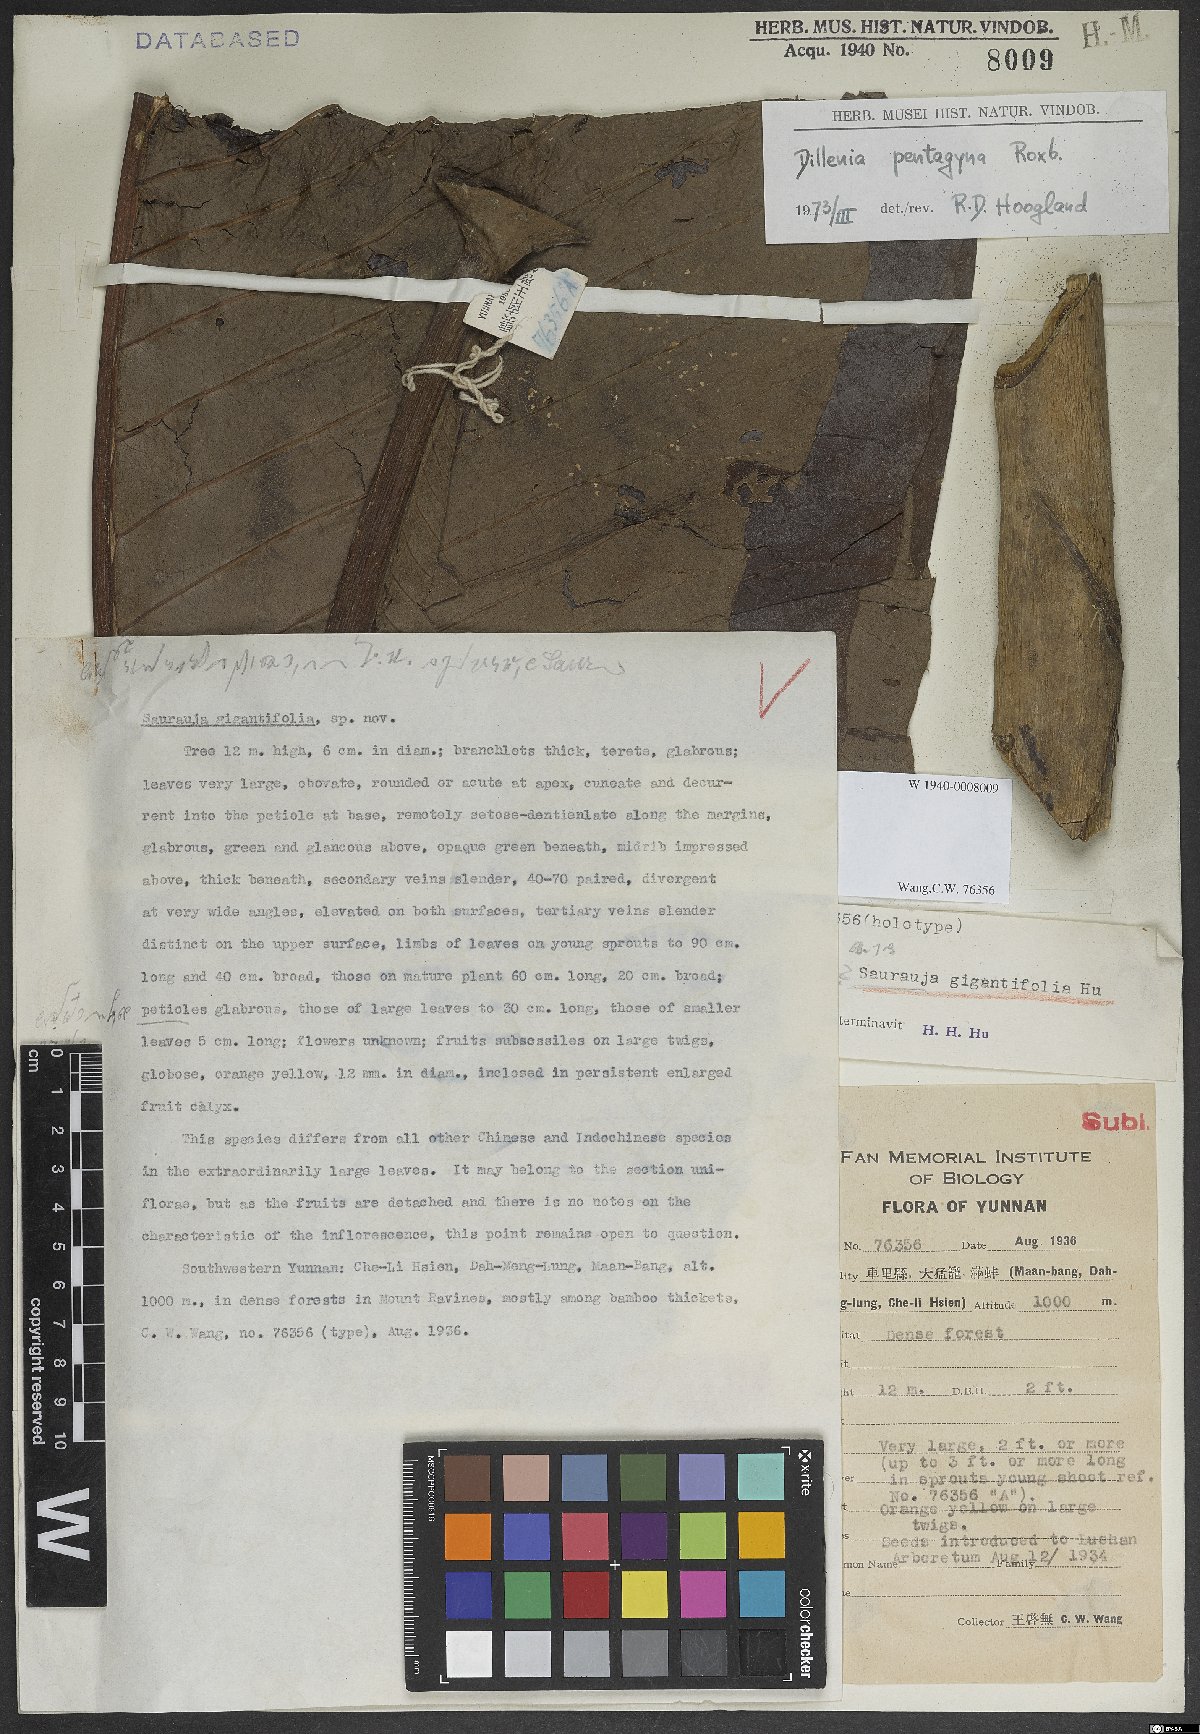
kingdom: Plantae
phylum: Tracheophyta
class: Magnoliopsida
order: Dilleniales
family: Dilleniaceae
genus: Dillenia
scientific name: Dillenia pentagyna
